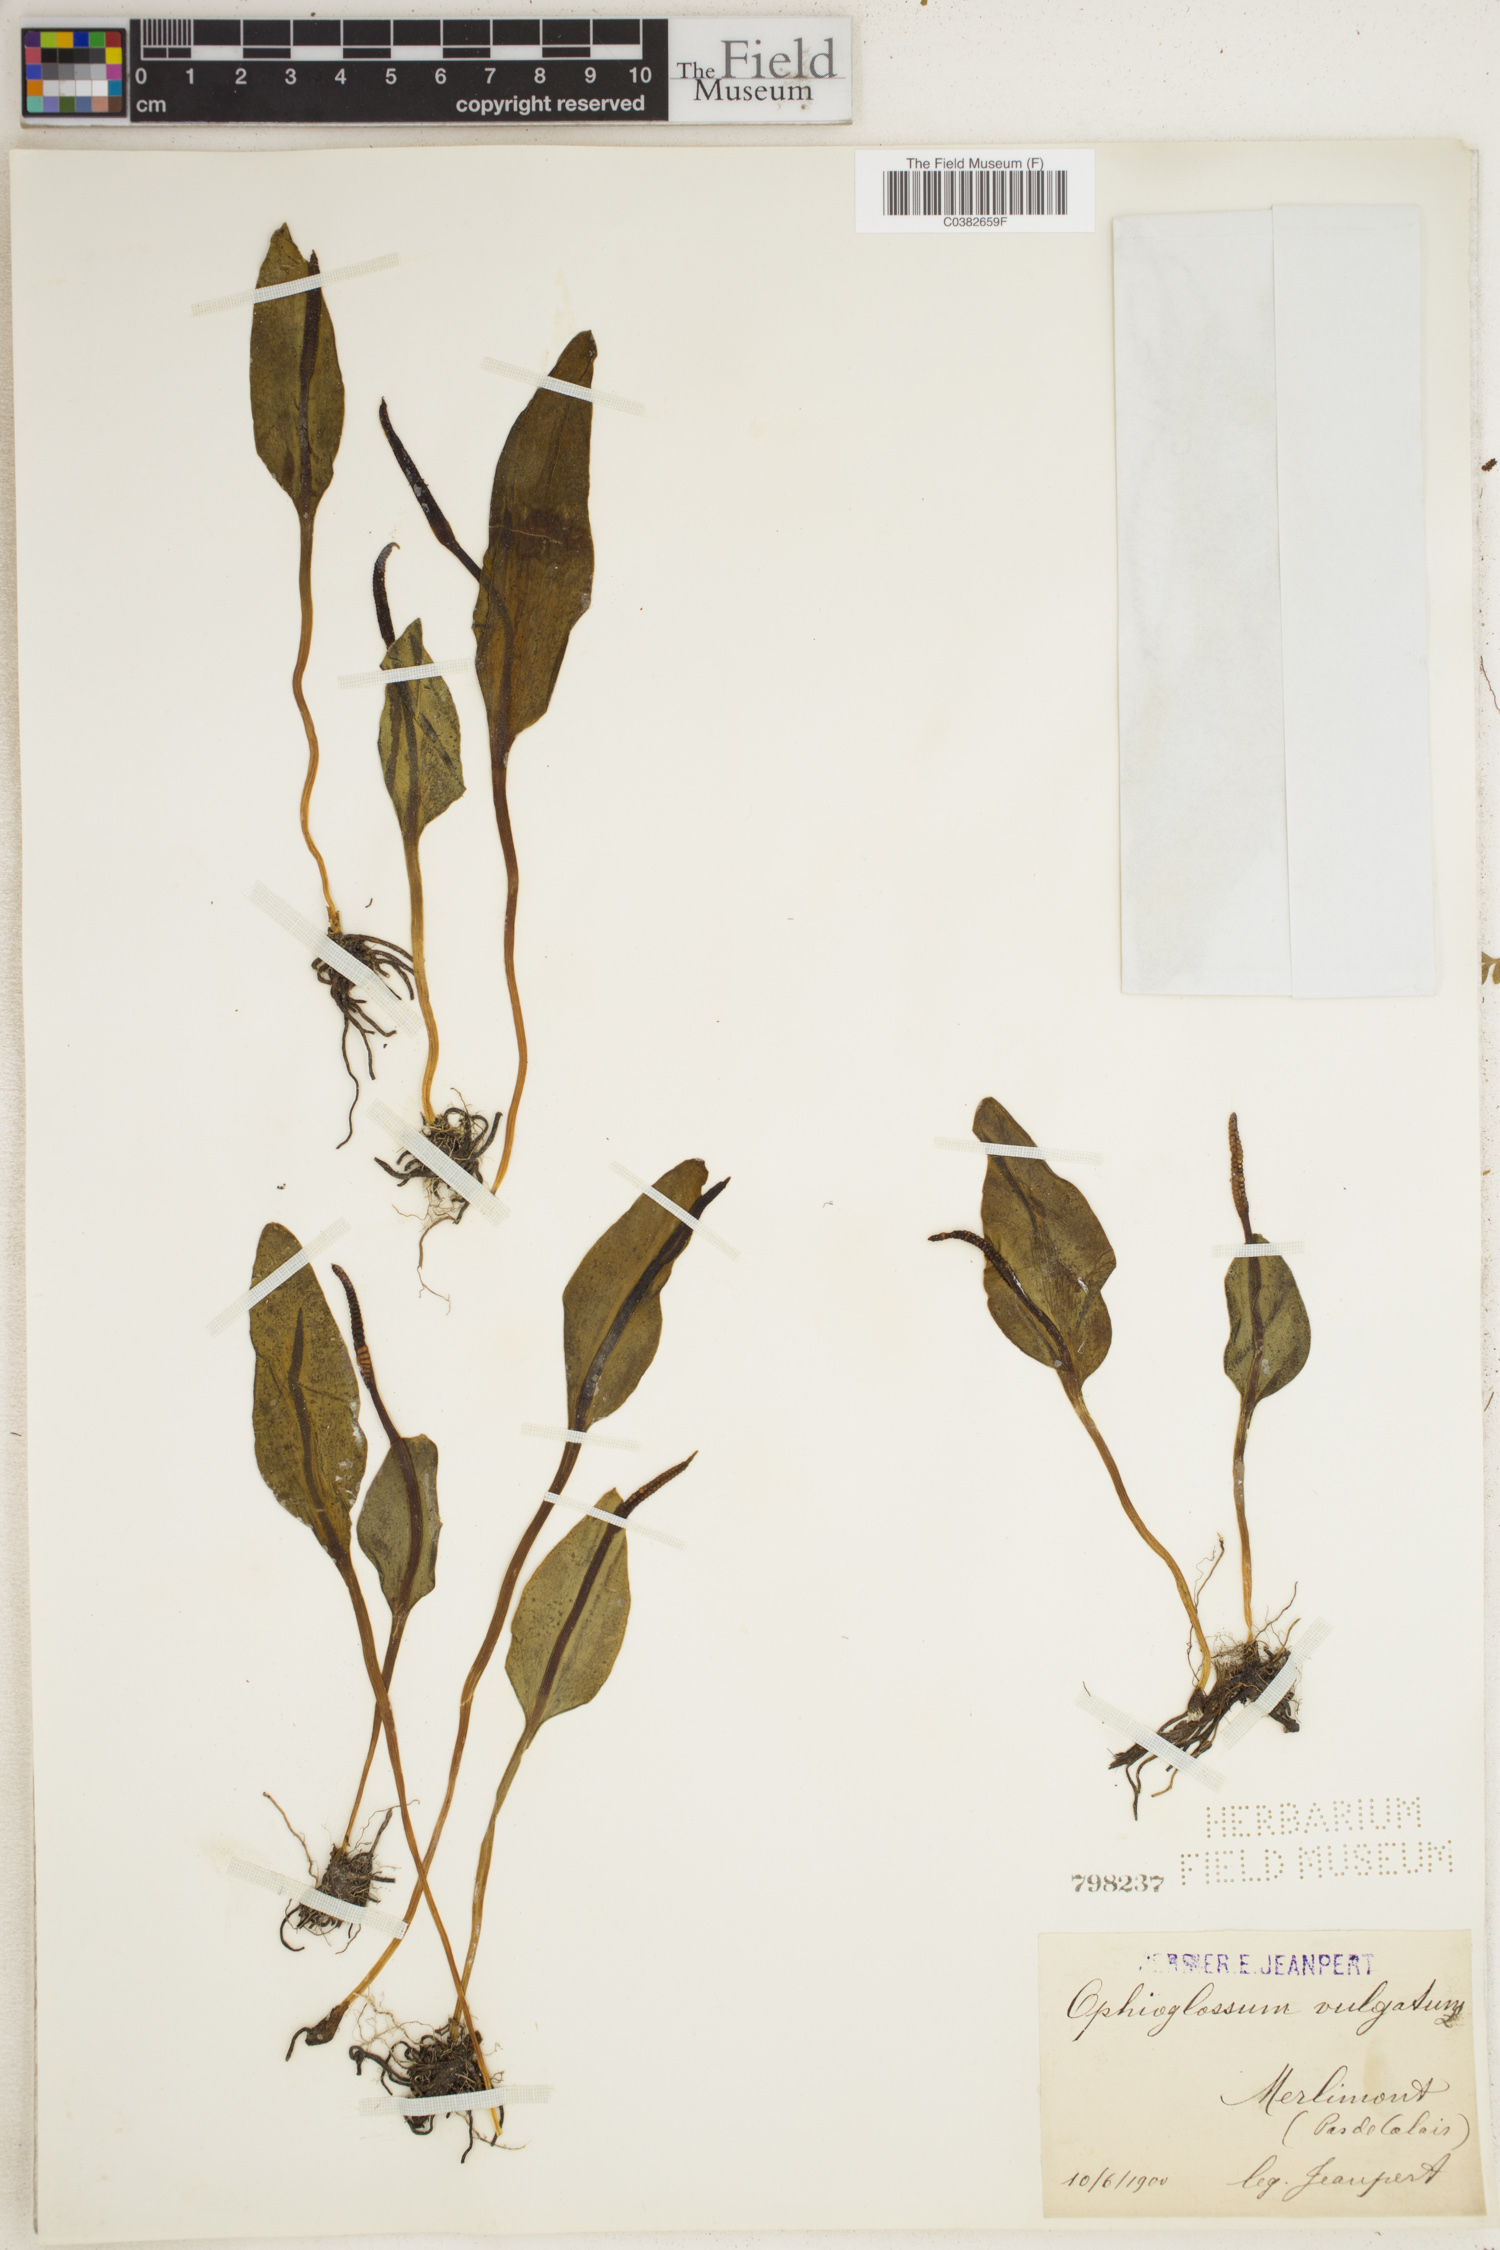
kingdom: Plantae
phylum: Tracheophyta
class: Polypodiopsida
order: Ophioglossales
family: Ophioglossaceae
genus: Ophioglossum
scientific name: Ophioglossum vulgatum
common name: Adder's-tongue
